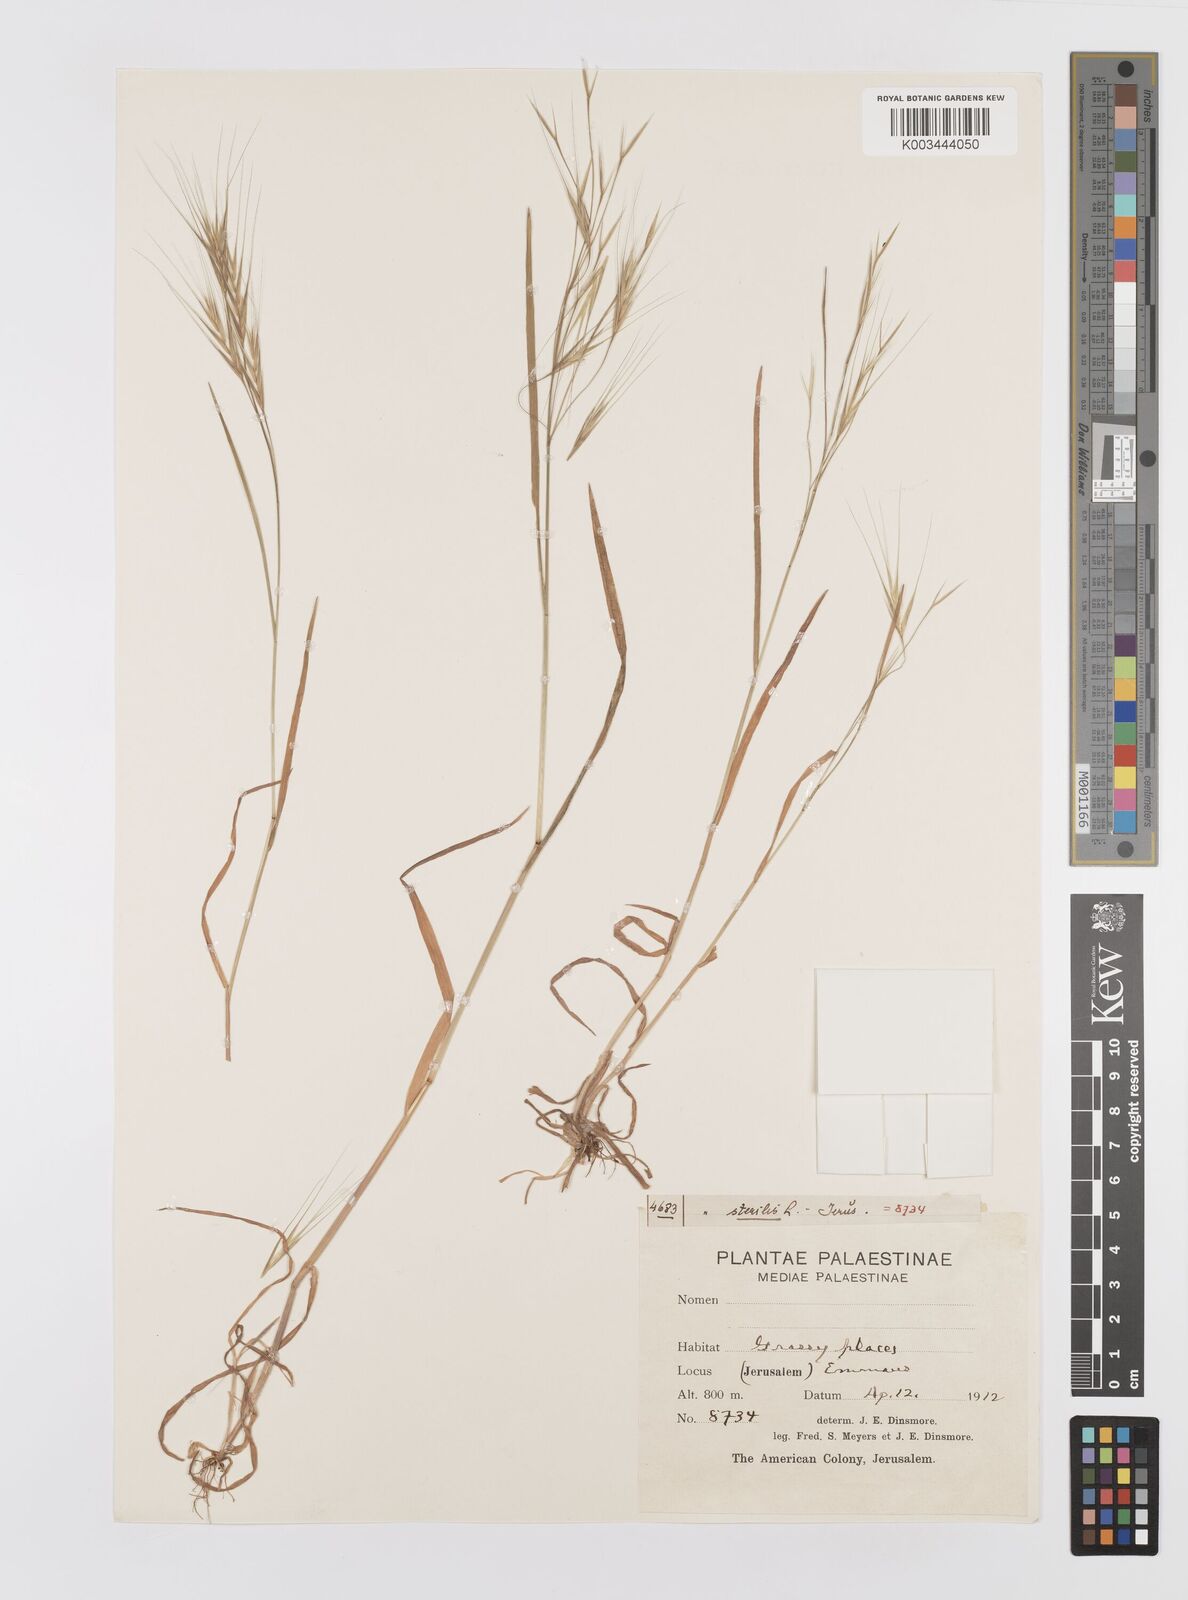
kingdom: Plantae
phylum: Tracheophyta
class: Liliopsida
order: Poales
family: Poaceae
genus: Bromus
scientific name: Bromus sterilis
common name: Poverty brome
